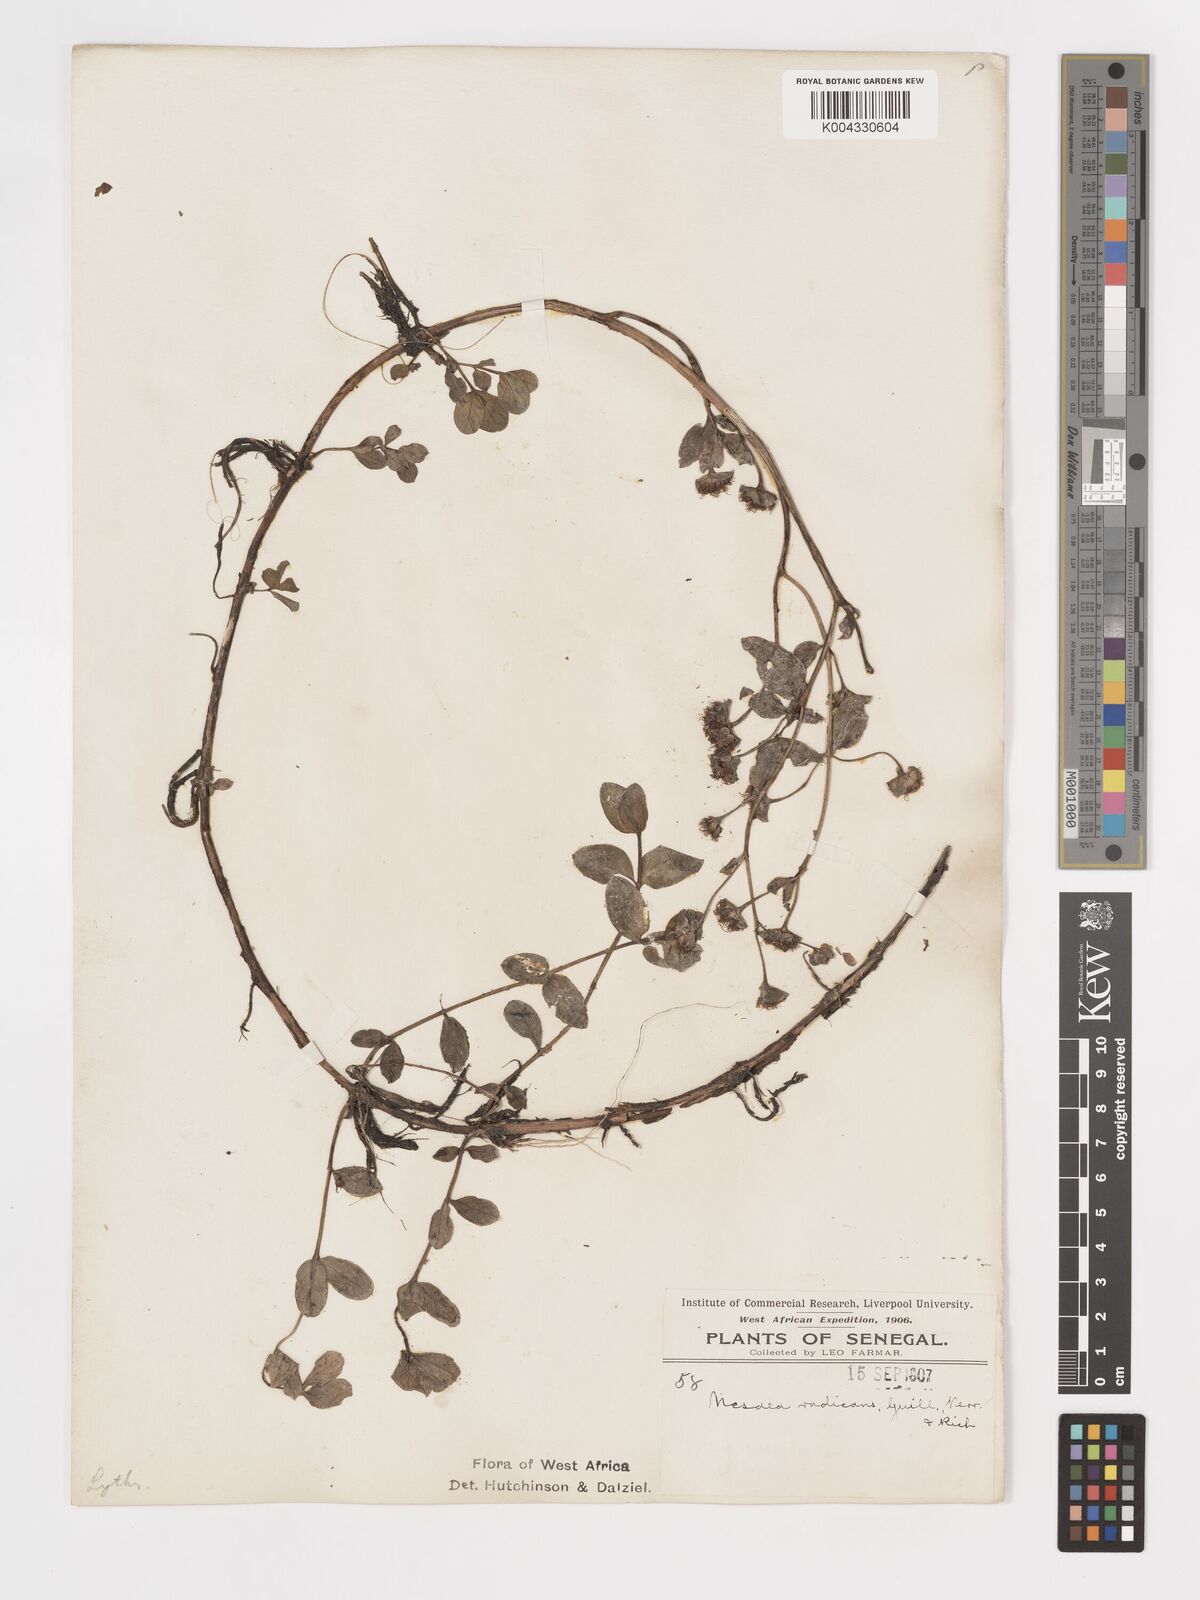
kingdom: Plantae
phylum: Tracheophyta
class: Magnoliopsida
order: Myrtales
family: Lythraceae
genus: Ammannia
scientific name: Ammannia radicans
